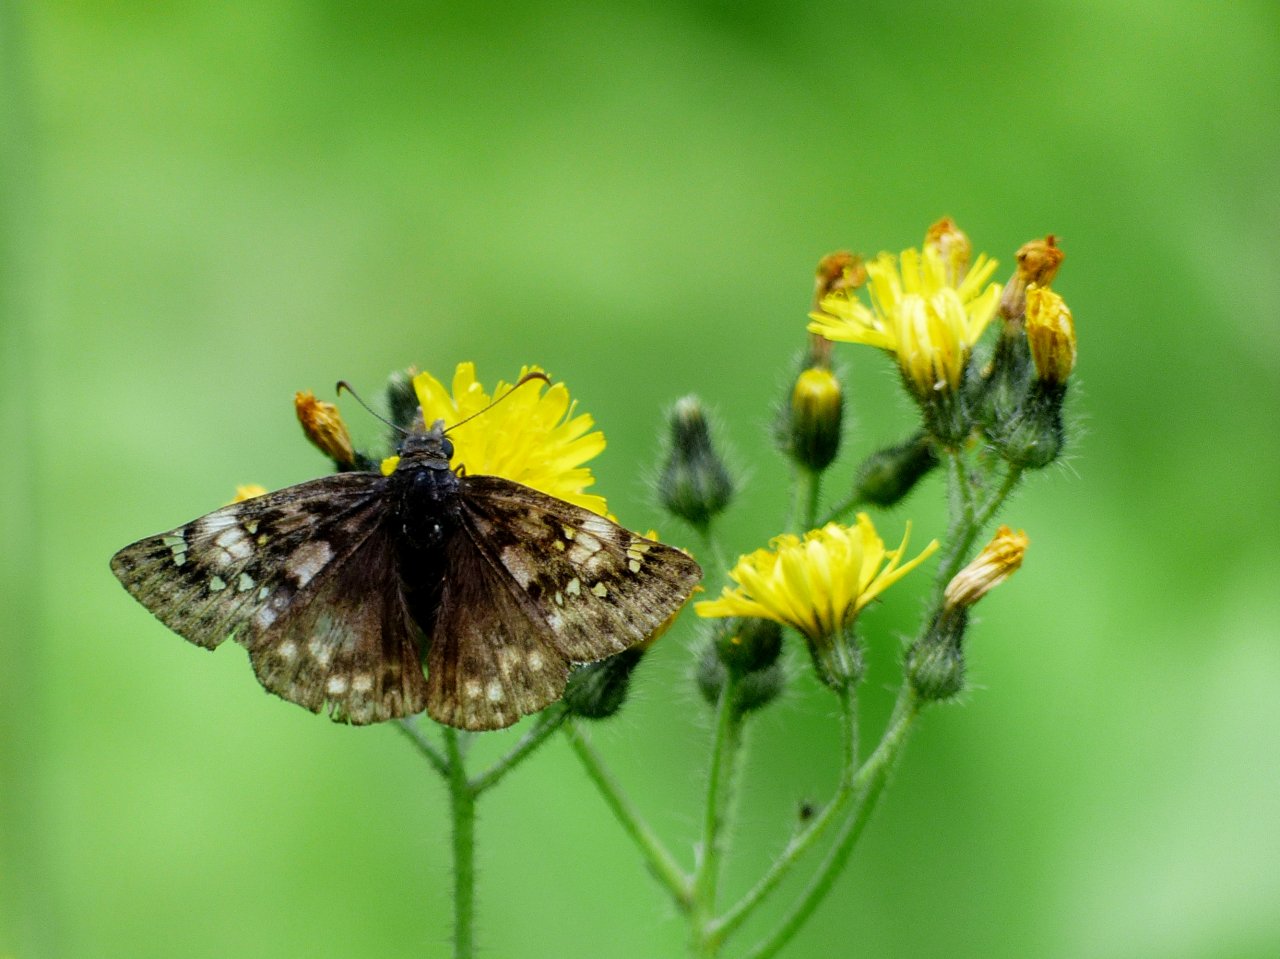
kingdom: Animalia
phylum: Arthropoda
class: Insecta
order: Lepidoptera
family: Hesperiidae
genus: Gesta
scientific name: Gesta
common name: Juvenal's Duskywing
